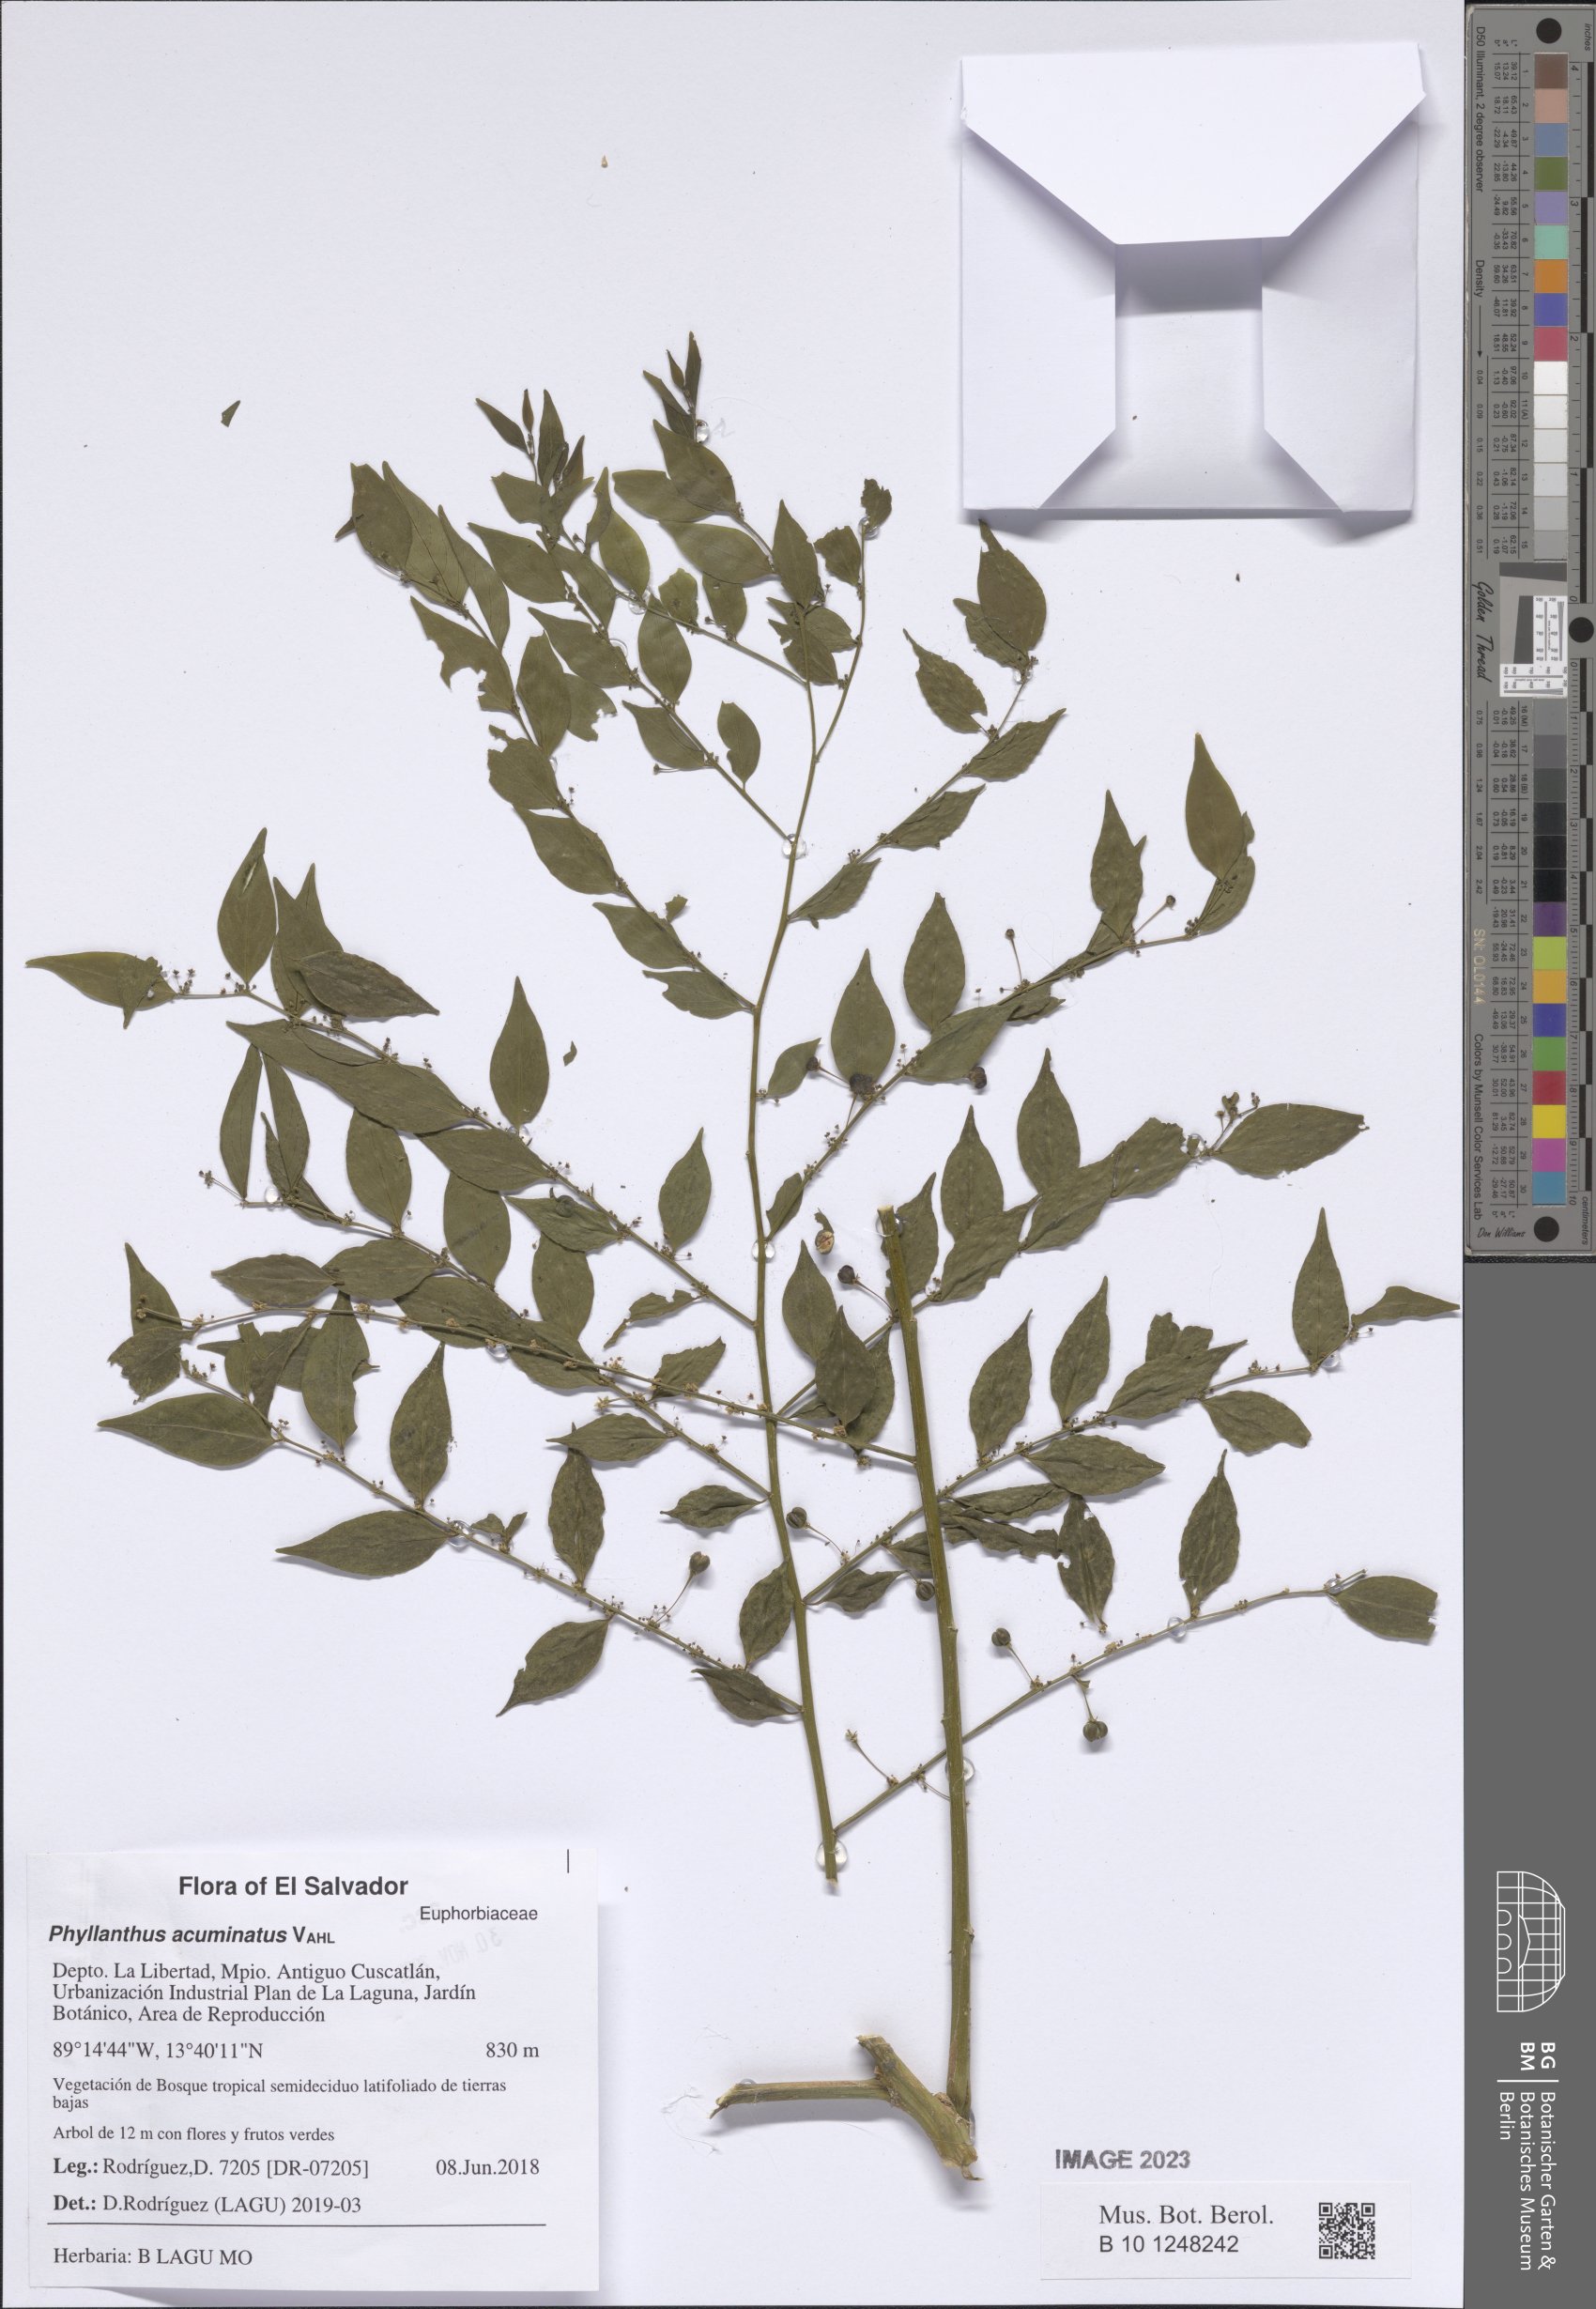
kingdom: Plantae
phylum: Tracheophyta
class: Magnoliopsida
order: Malpighiales
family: Phyllanthaceae
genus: Phyllanthus
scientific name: Phyllanthus acuminatus
